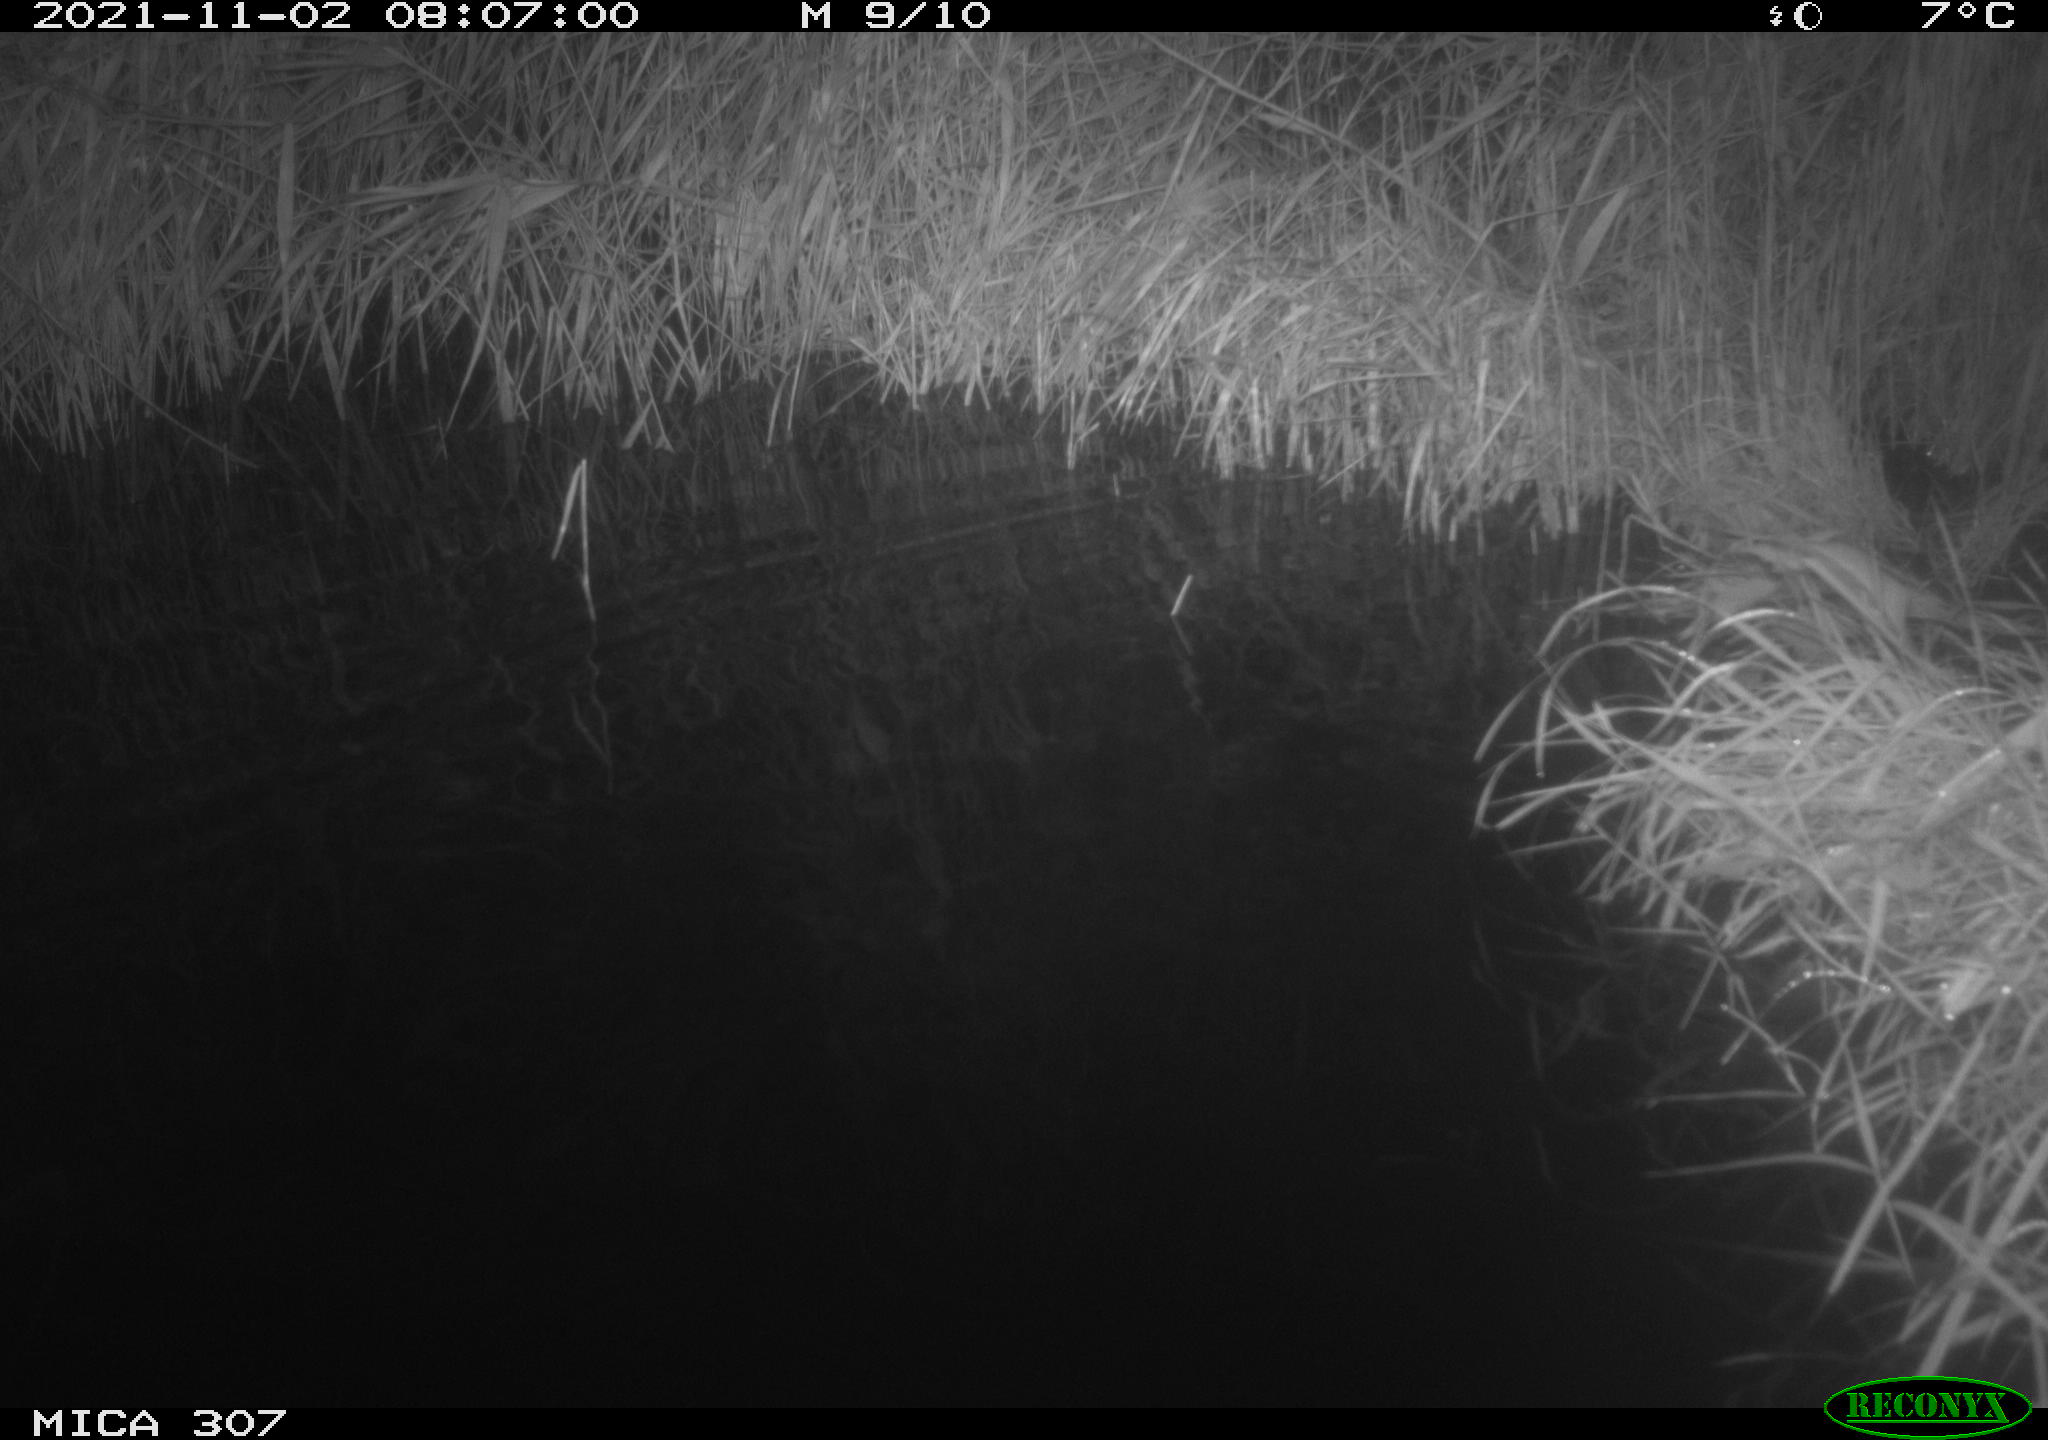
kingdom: Animalia
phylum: Chordata
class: Mammalia
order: Rodentia
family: Muridae
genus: Rattus
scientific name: Rattus norvegicus
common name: Brown rat
